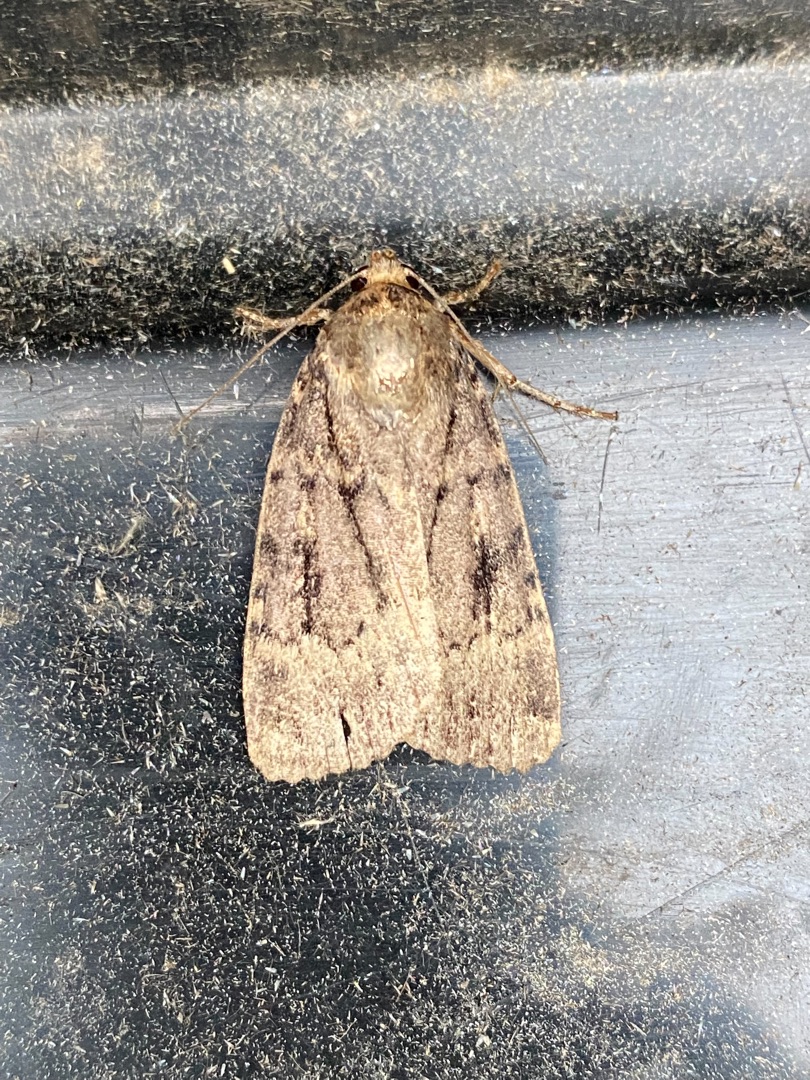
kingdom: Animalia
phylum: Arthropoda
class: Insecta
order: Lepidoptera
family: Noctuidae
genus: Amphipyra
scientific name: Amphipyra pyramidea
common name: Pyramideugle
